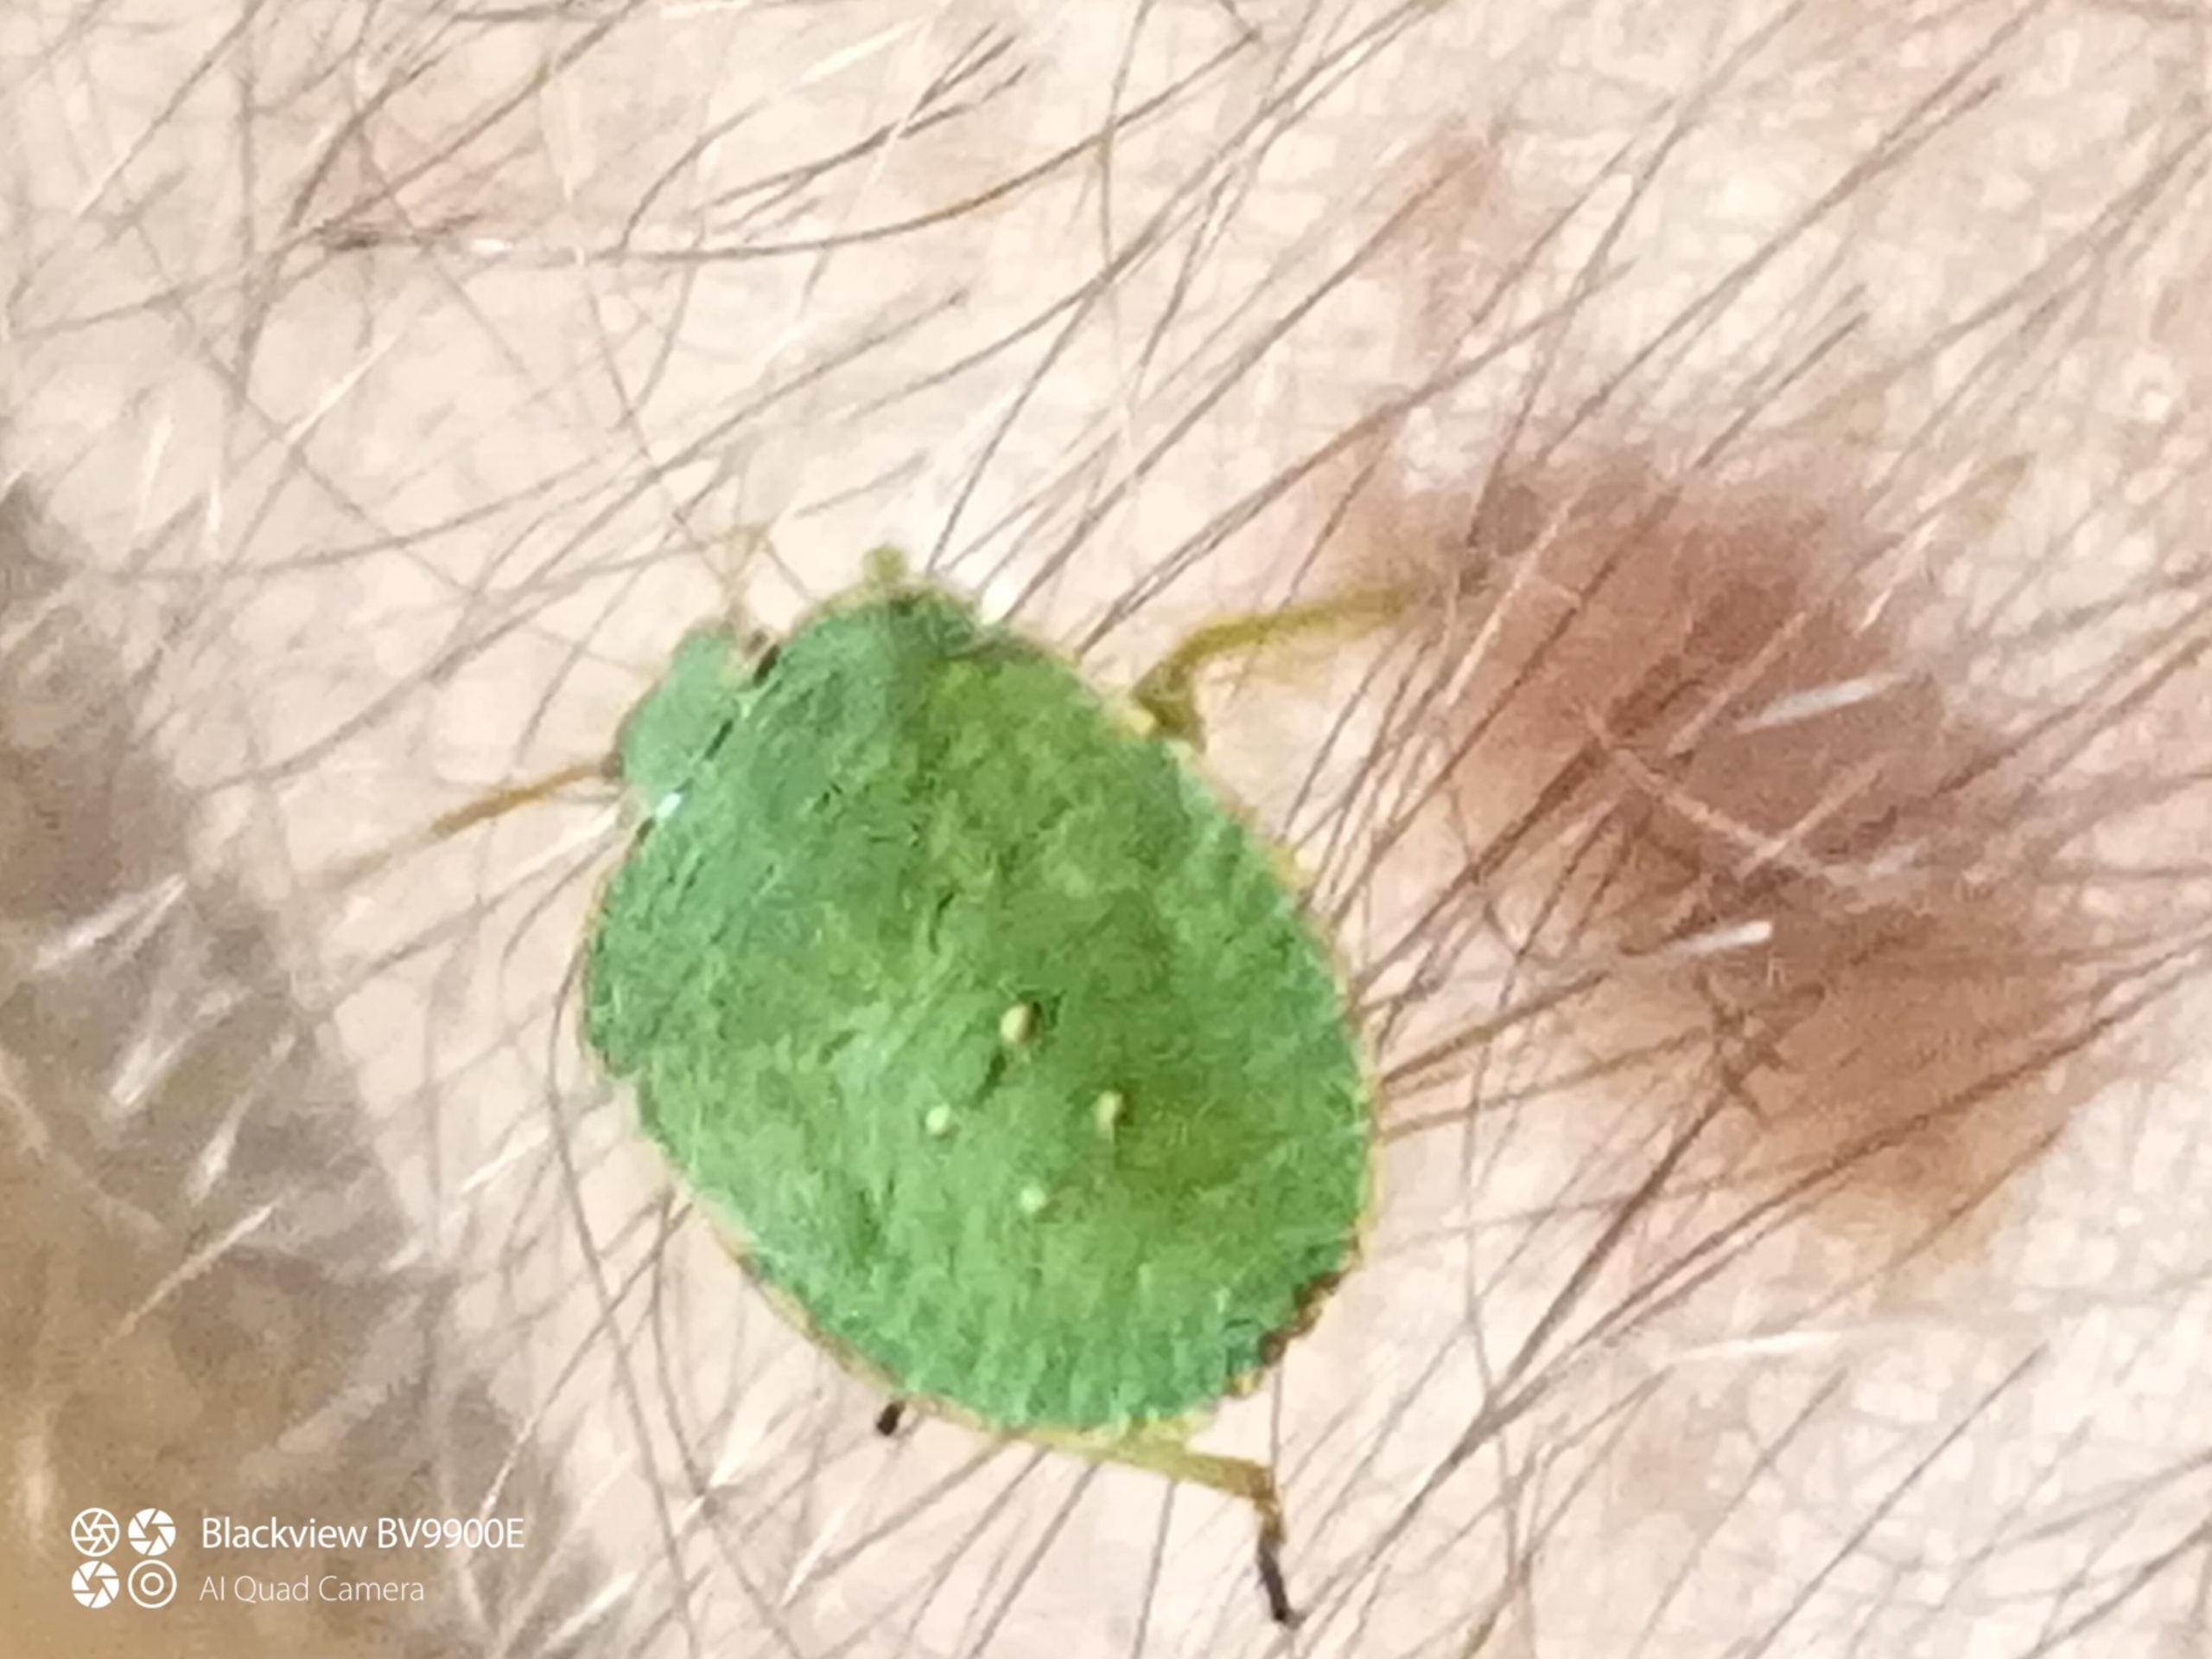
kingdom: Animalia
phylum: Arthropoda
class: Insecta
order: Hemiptera
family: Pentatomidae
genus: Palomena
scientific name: Palomena prasina
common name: Grøn bredtæge
